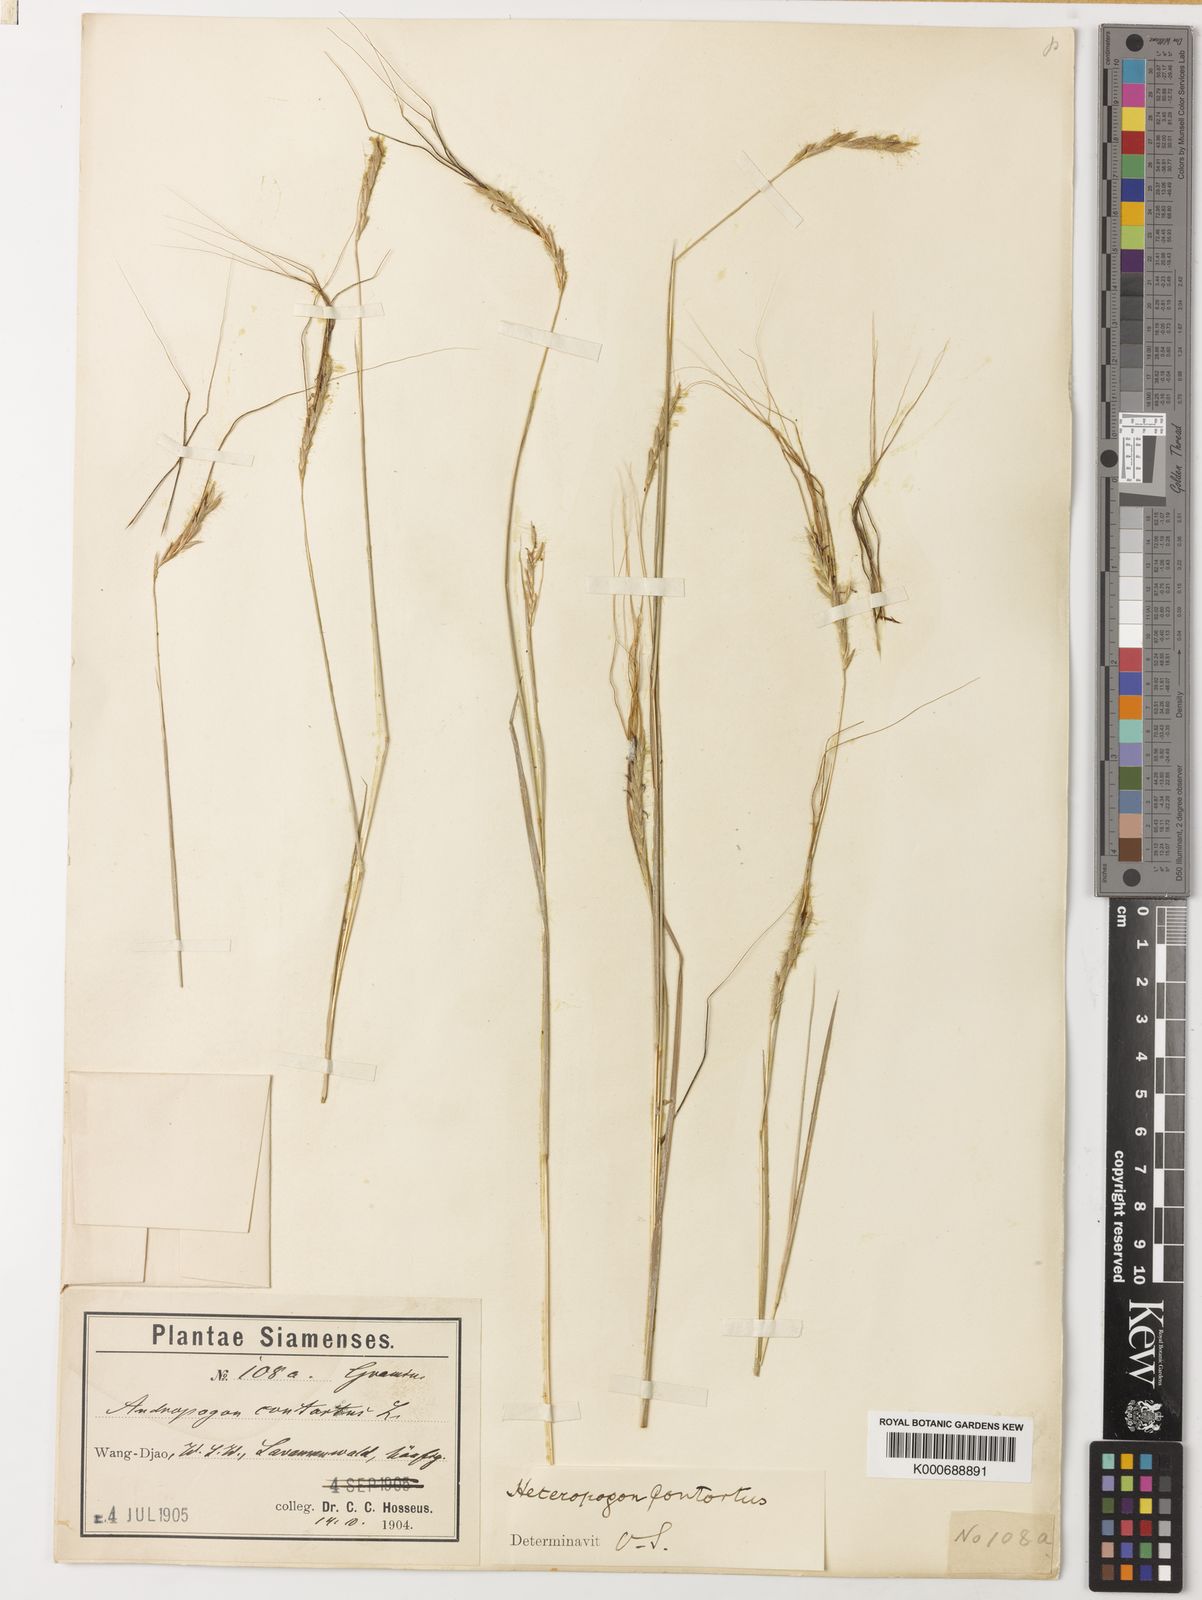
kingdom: Plantae
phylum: Tracheophyta
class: Liliopsida
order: Poales
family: Poaceae
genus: Heteropogon
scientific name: Heteropogon contortus
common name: Tanglehead
